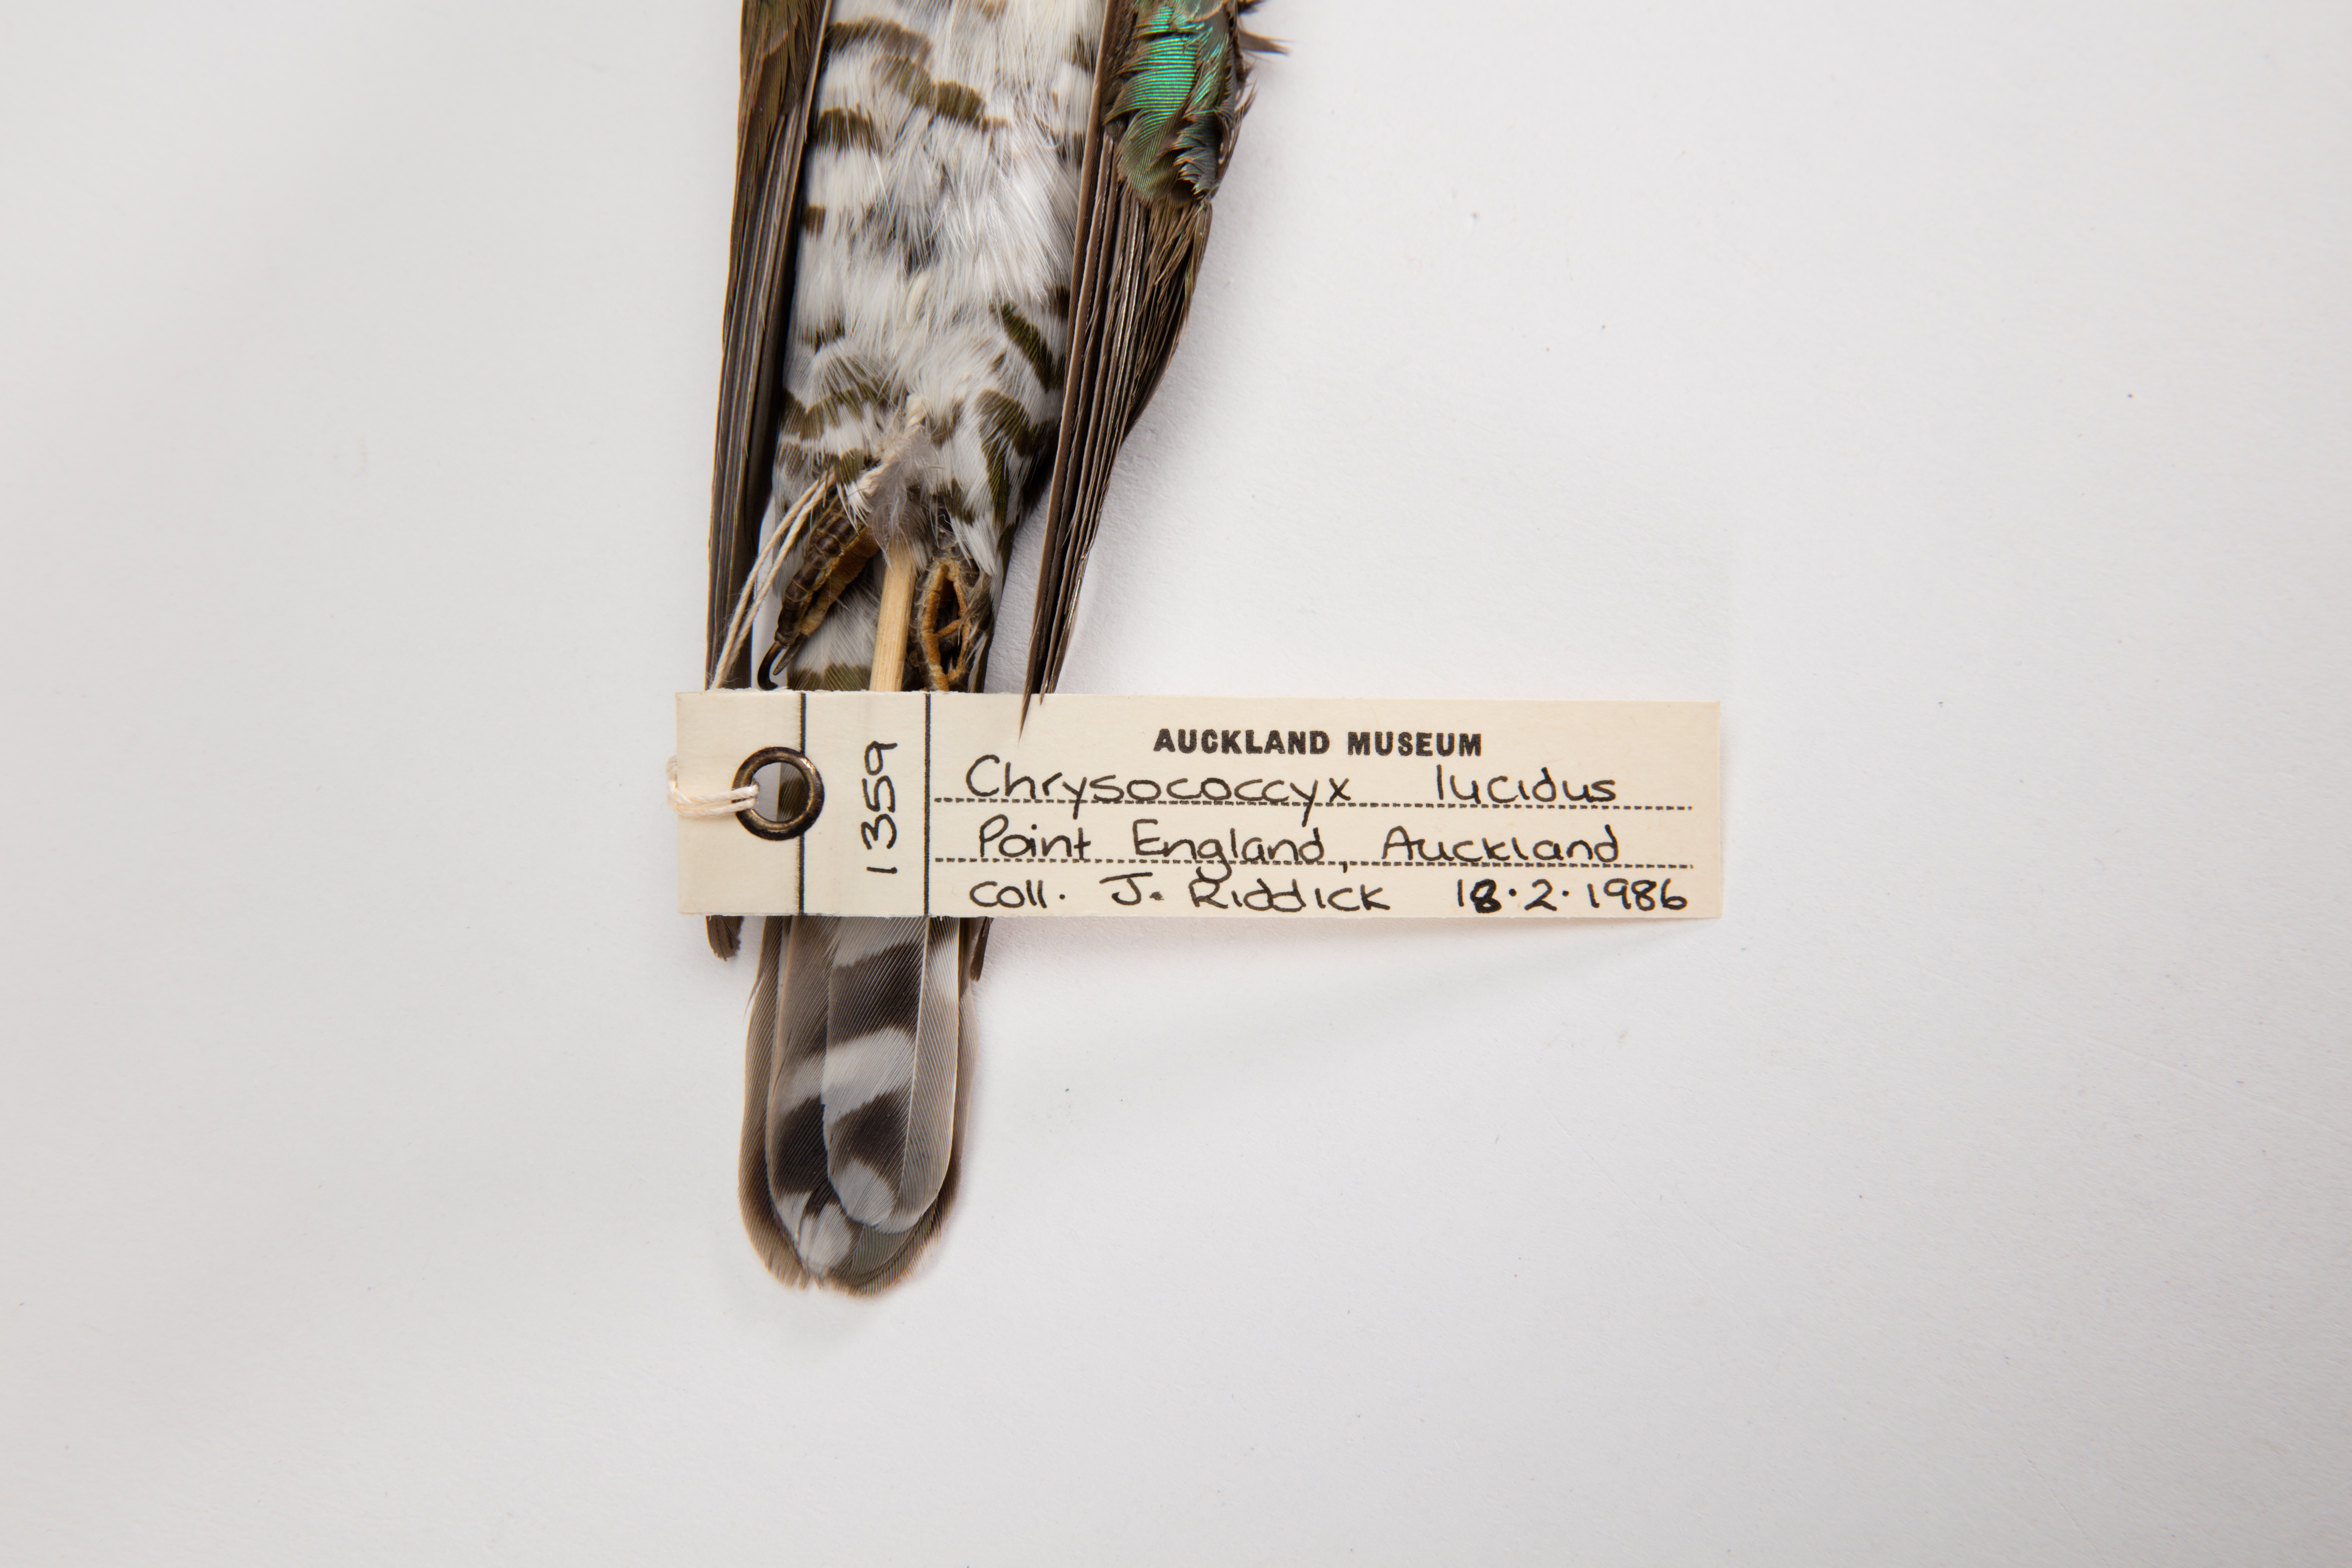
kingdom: Animalia
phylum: Chordata
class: Aves
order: Cuculiformes
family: Cuculidae
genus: Chrysococcyx
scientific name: Chrysococcyx lucidus
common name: Shining bronze cuckoo
